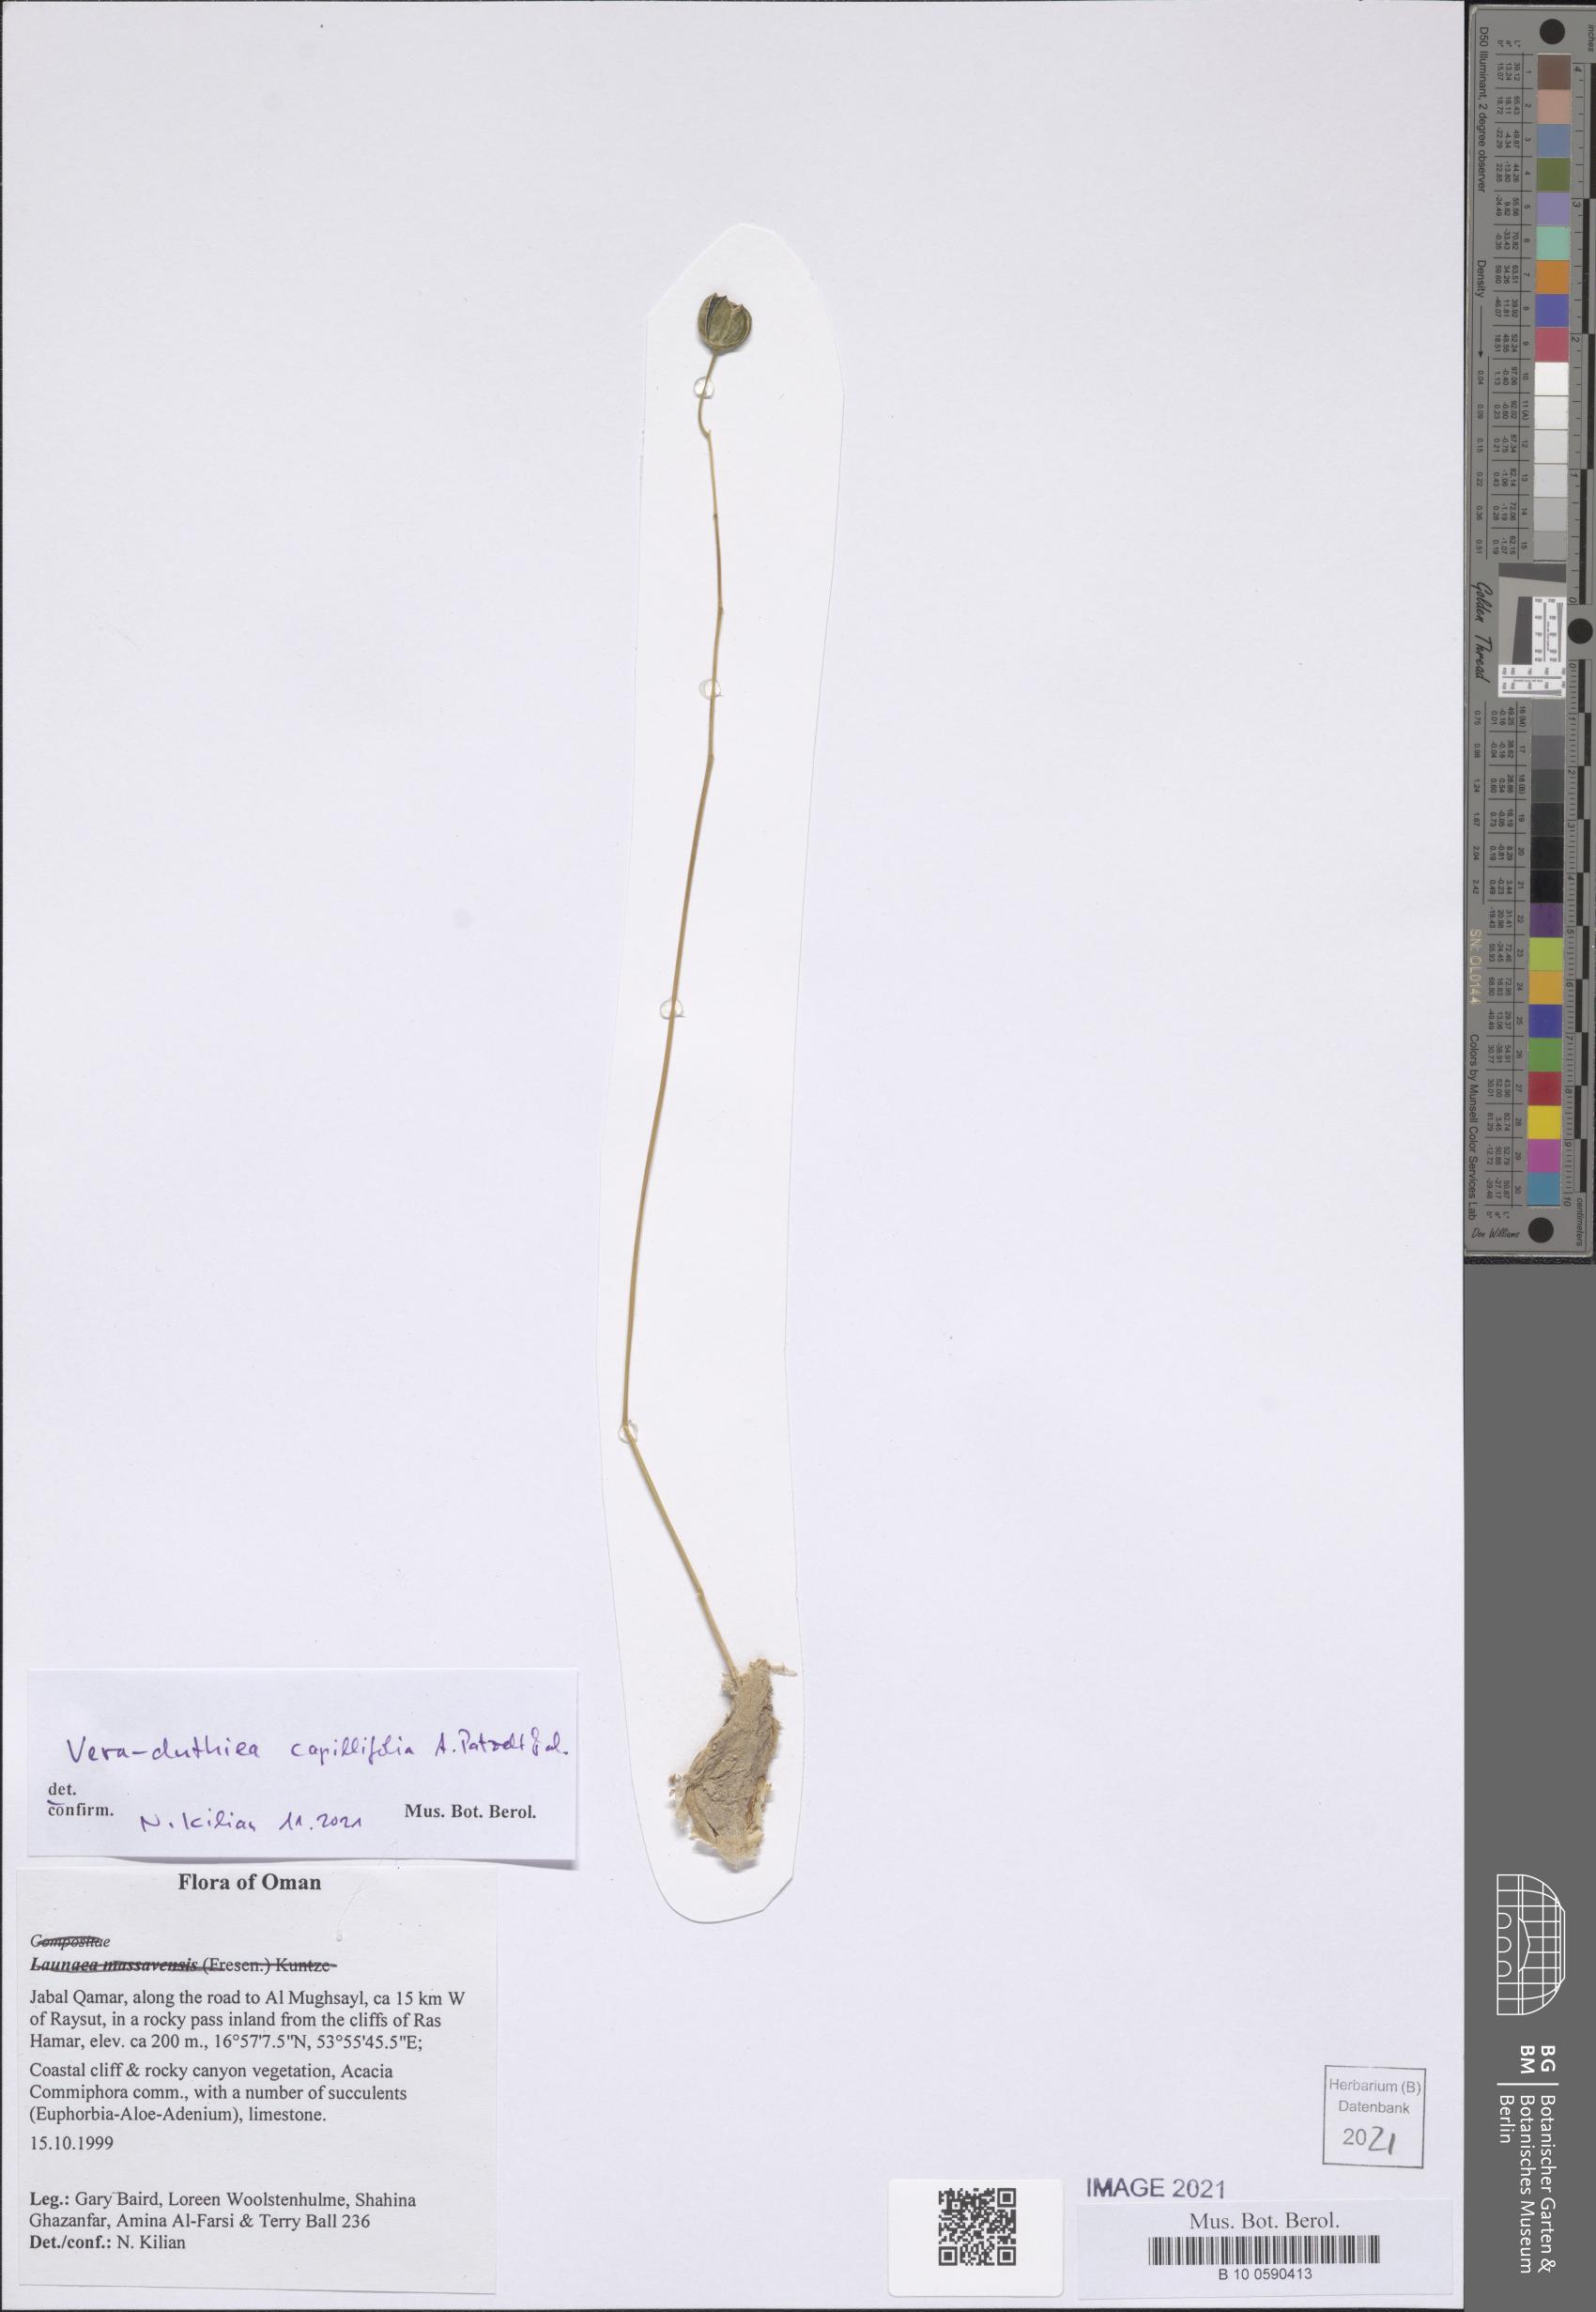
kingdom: Plantae
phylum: Tracheophyta
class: Liliopsida
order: Asparagales
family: Asparagaceae
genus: Drimia
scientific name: Drimia Vera-duthiea capillifolia
